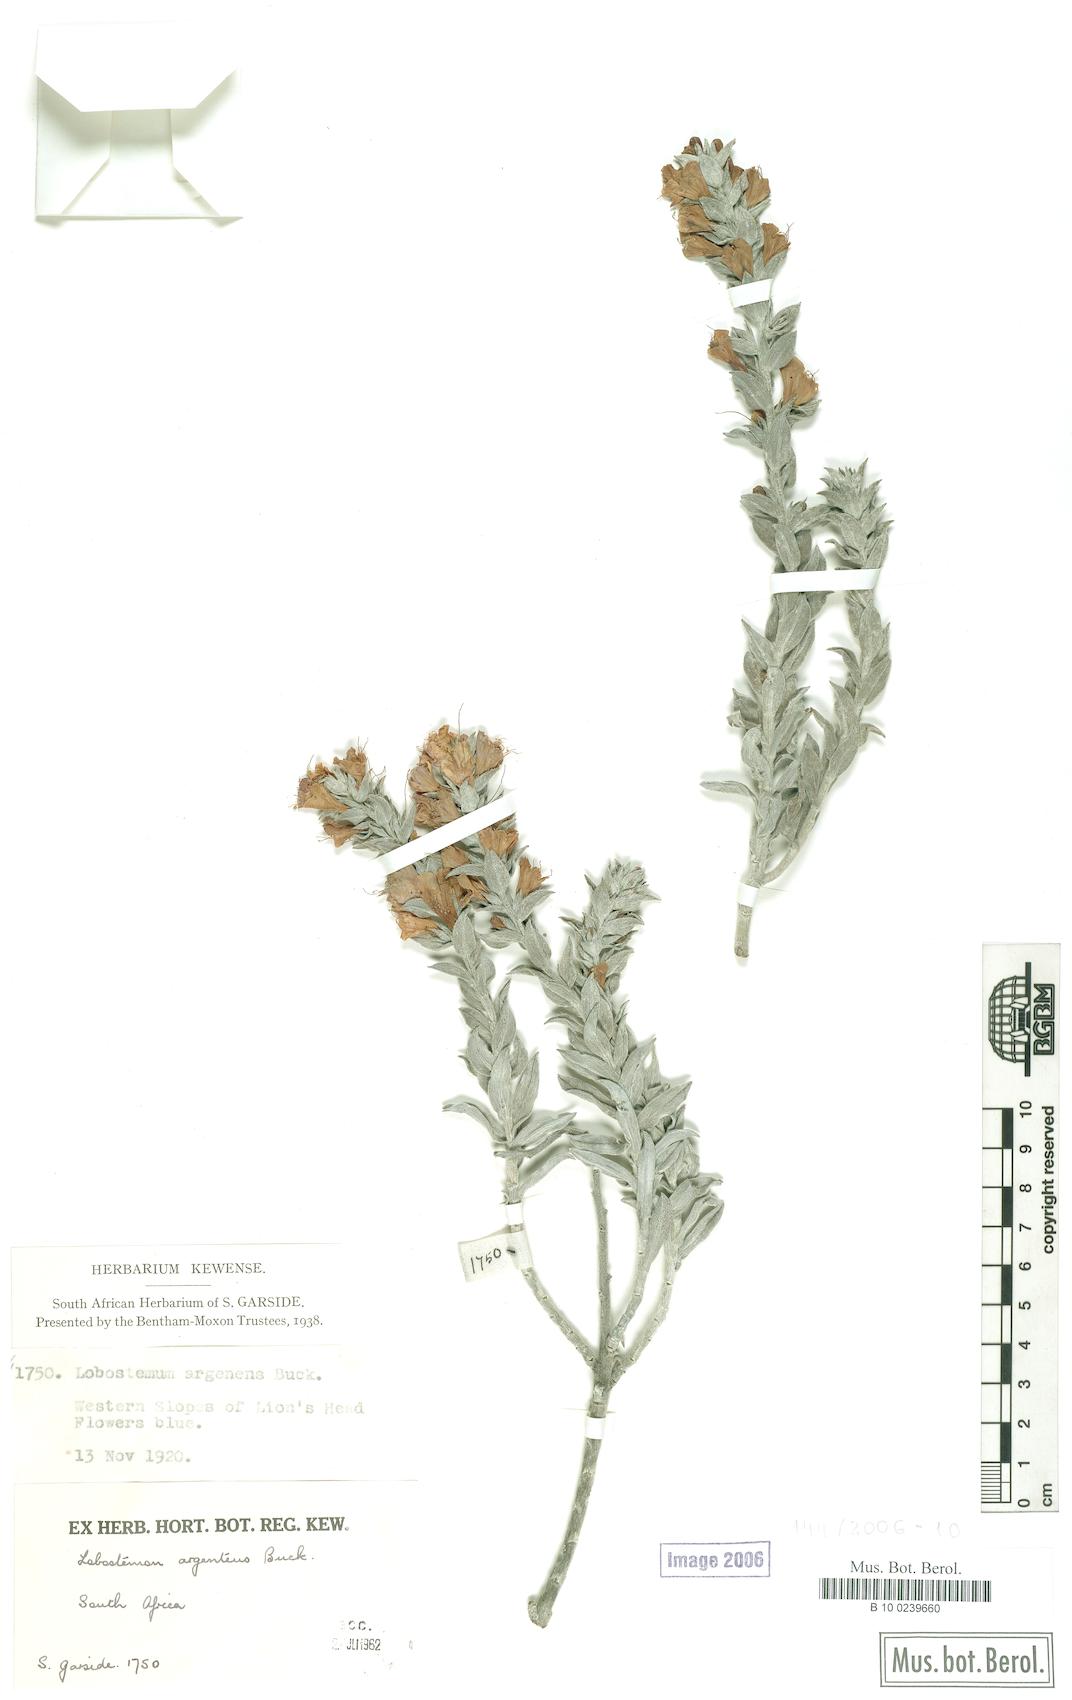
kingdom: Plantae
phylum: Tracheophyta
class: Magnoliopsida
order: Boraginales
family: Boraginaceae
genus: Lobostemon
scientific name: Lobostemon argenteus
